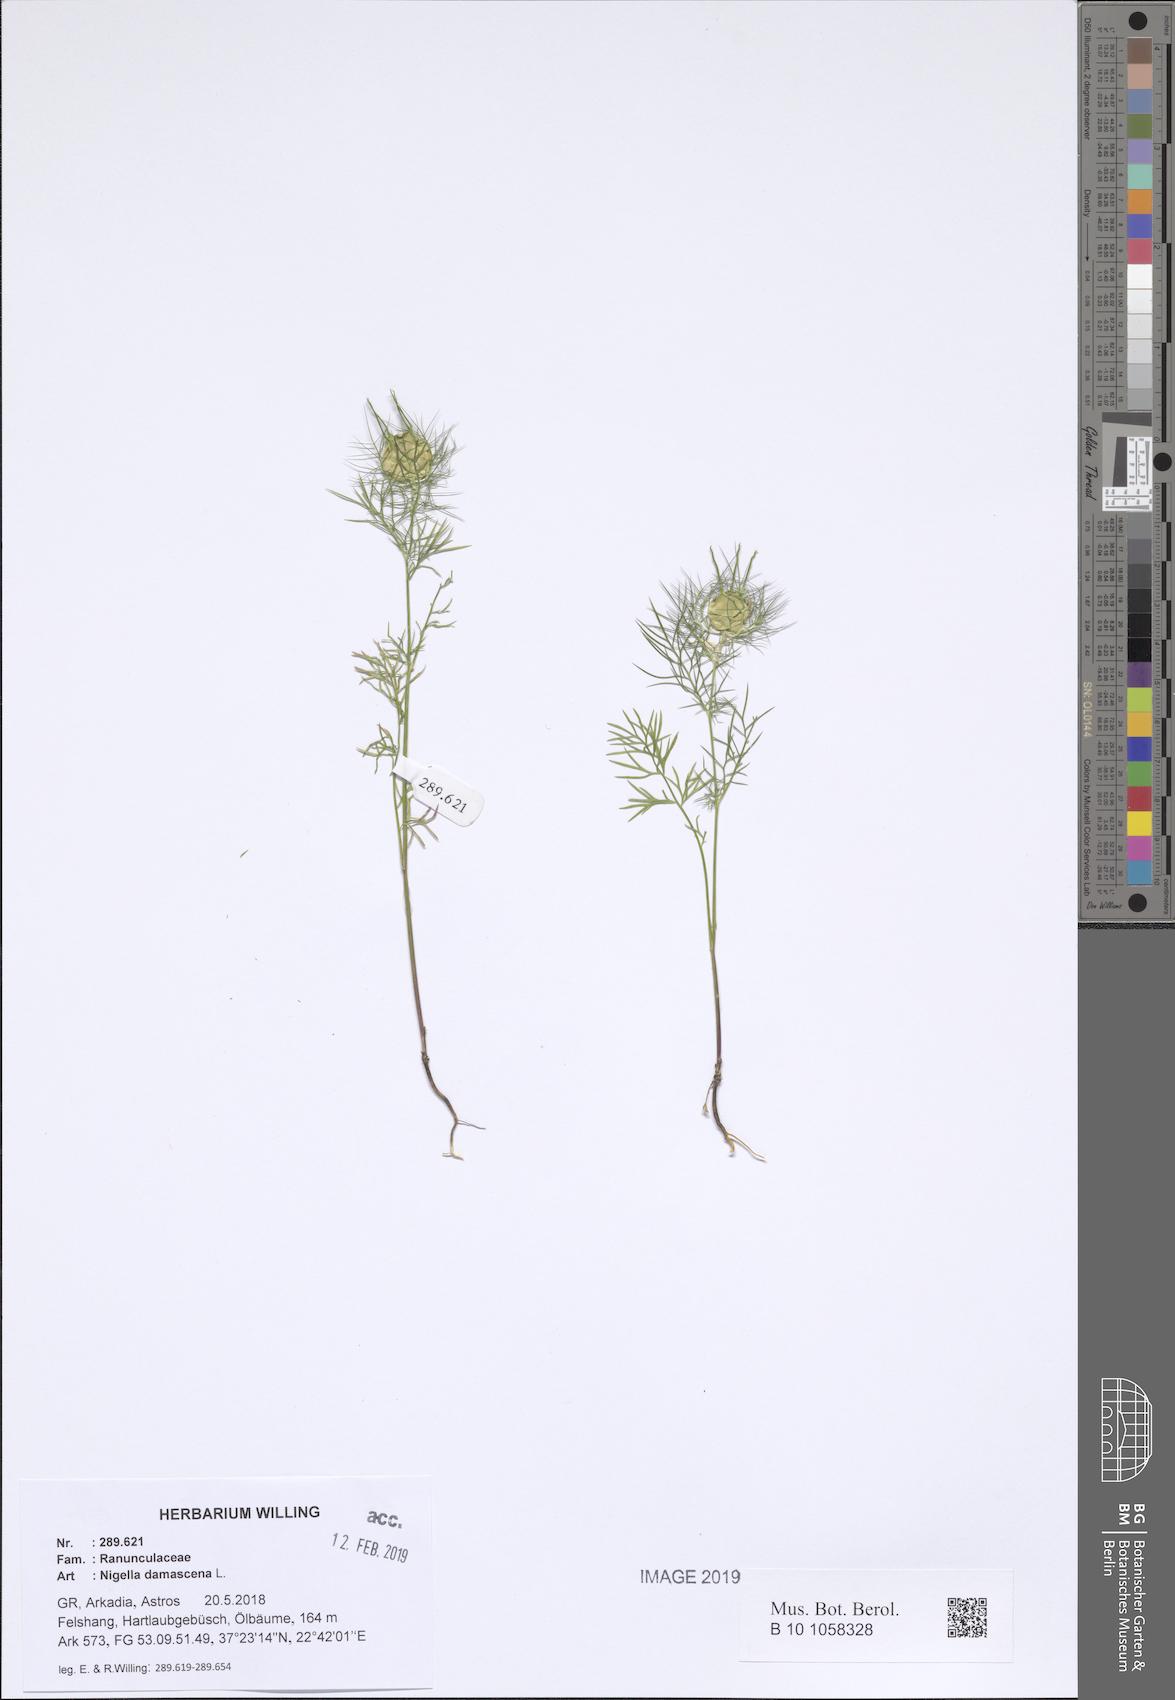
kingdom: Plantae
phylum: Tracheophyta
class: Magnoliopsida
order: Ranunculales
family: Ranunculaceae
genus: Nigella
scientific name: Nigella damascena
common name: Love-in-a-mist
